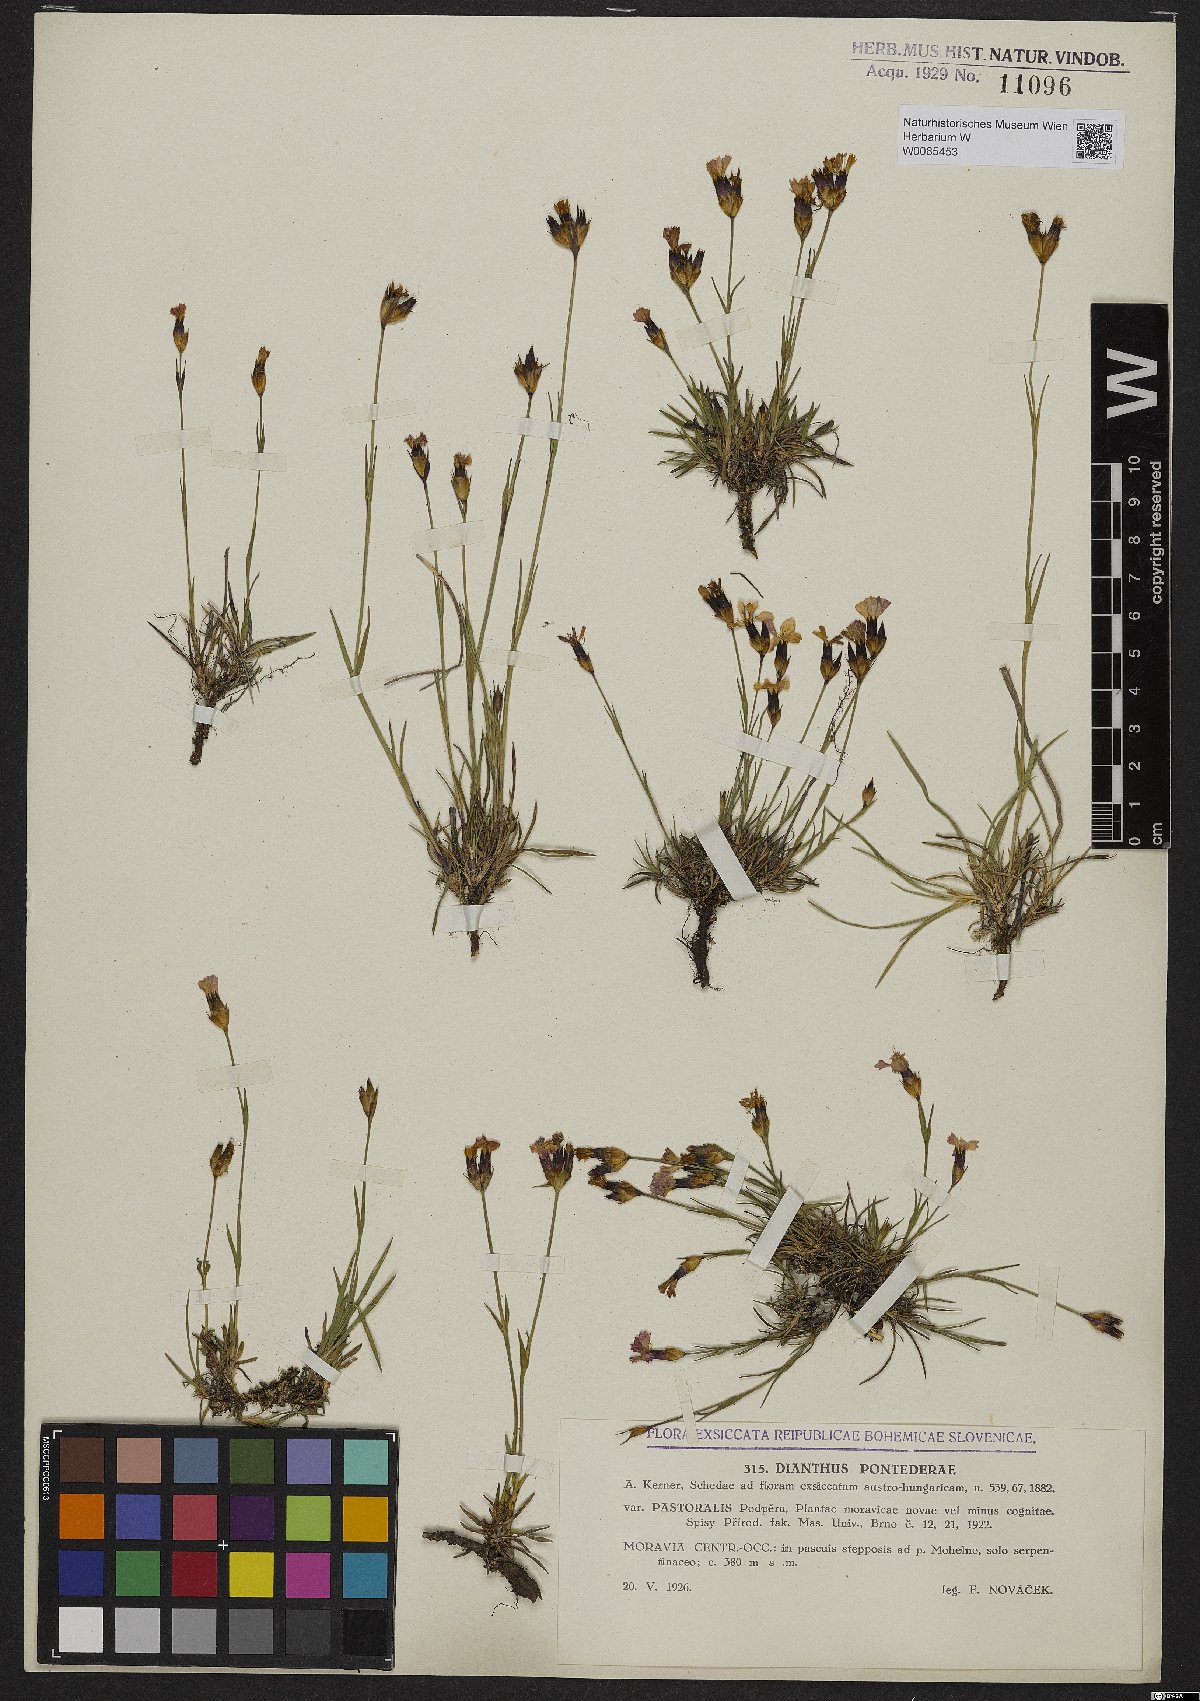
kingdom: Plantae
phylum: Tracheophyta
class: Magnoliopsida
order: Caryophyllales
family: Caryophyllaceae
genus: Dianthus
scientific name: Dianthus pontederae
